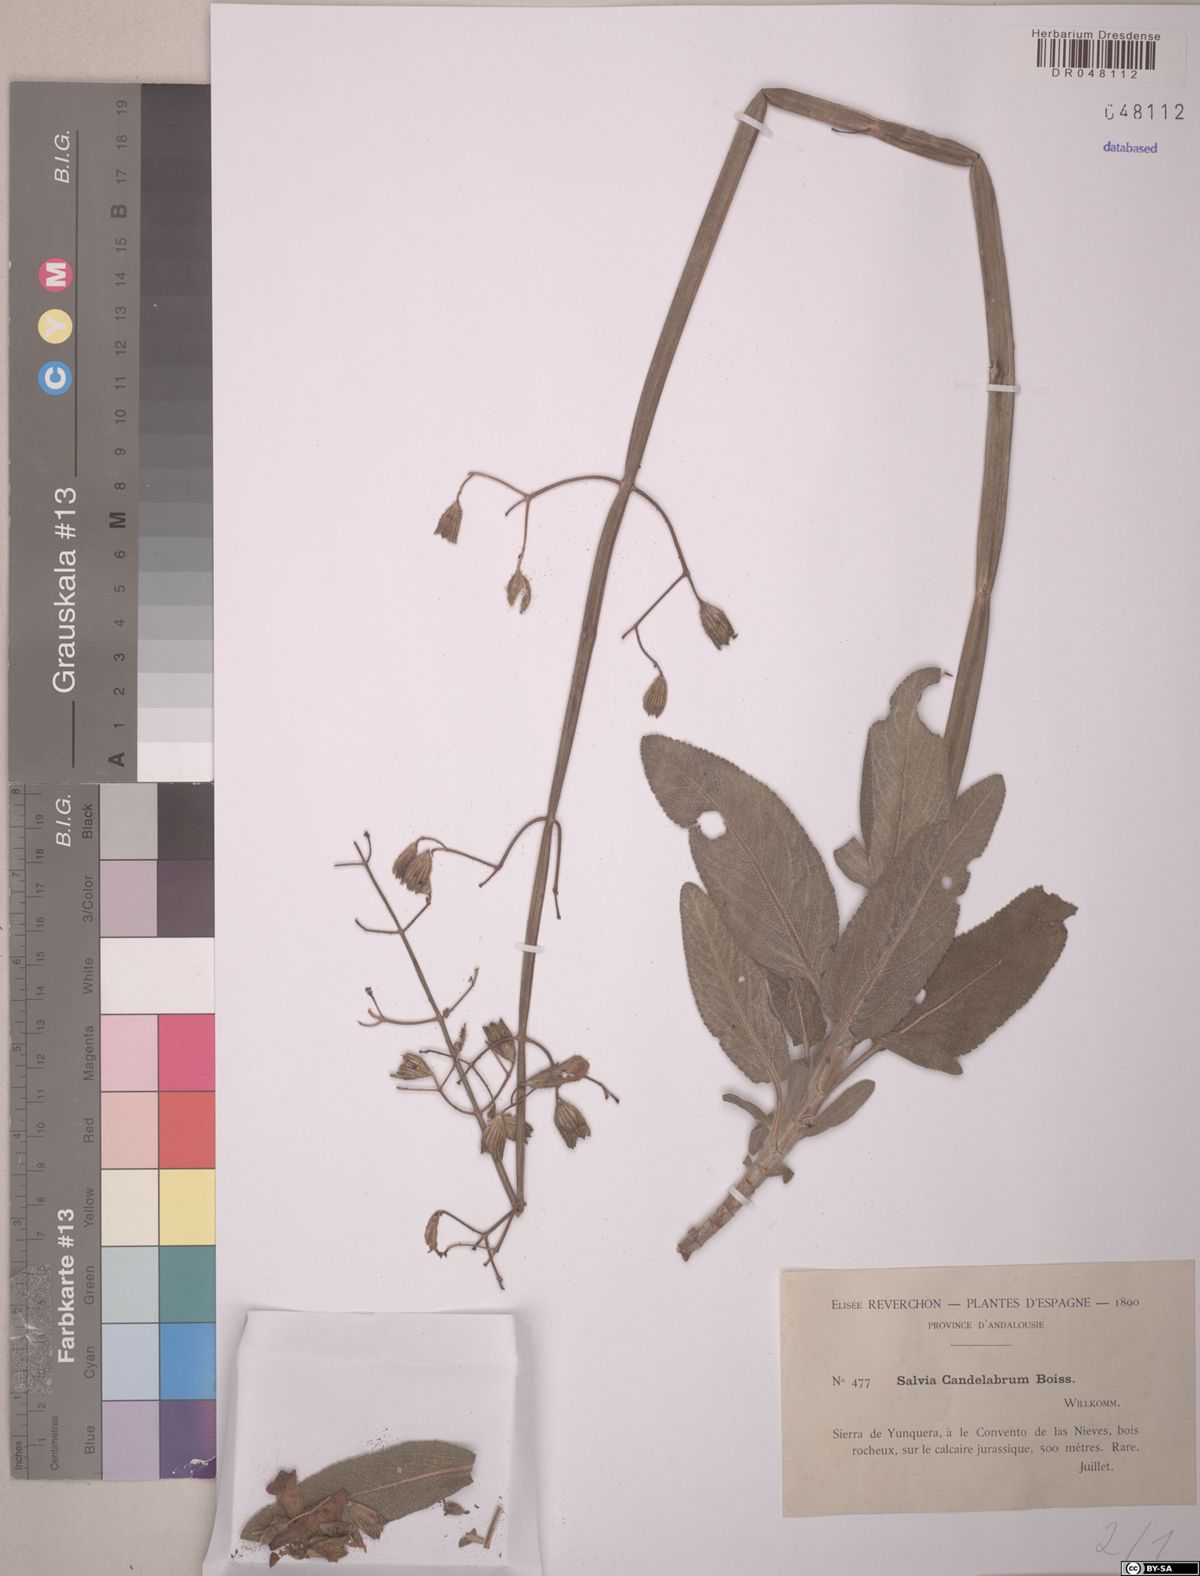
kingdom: Plantae
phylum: Tracheophyta
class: Magnoliopsida
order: Lamiales
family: Lamiaceae
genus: Salvia
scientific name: Salvia candelabrum
